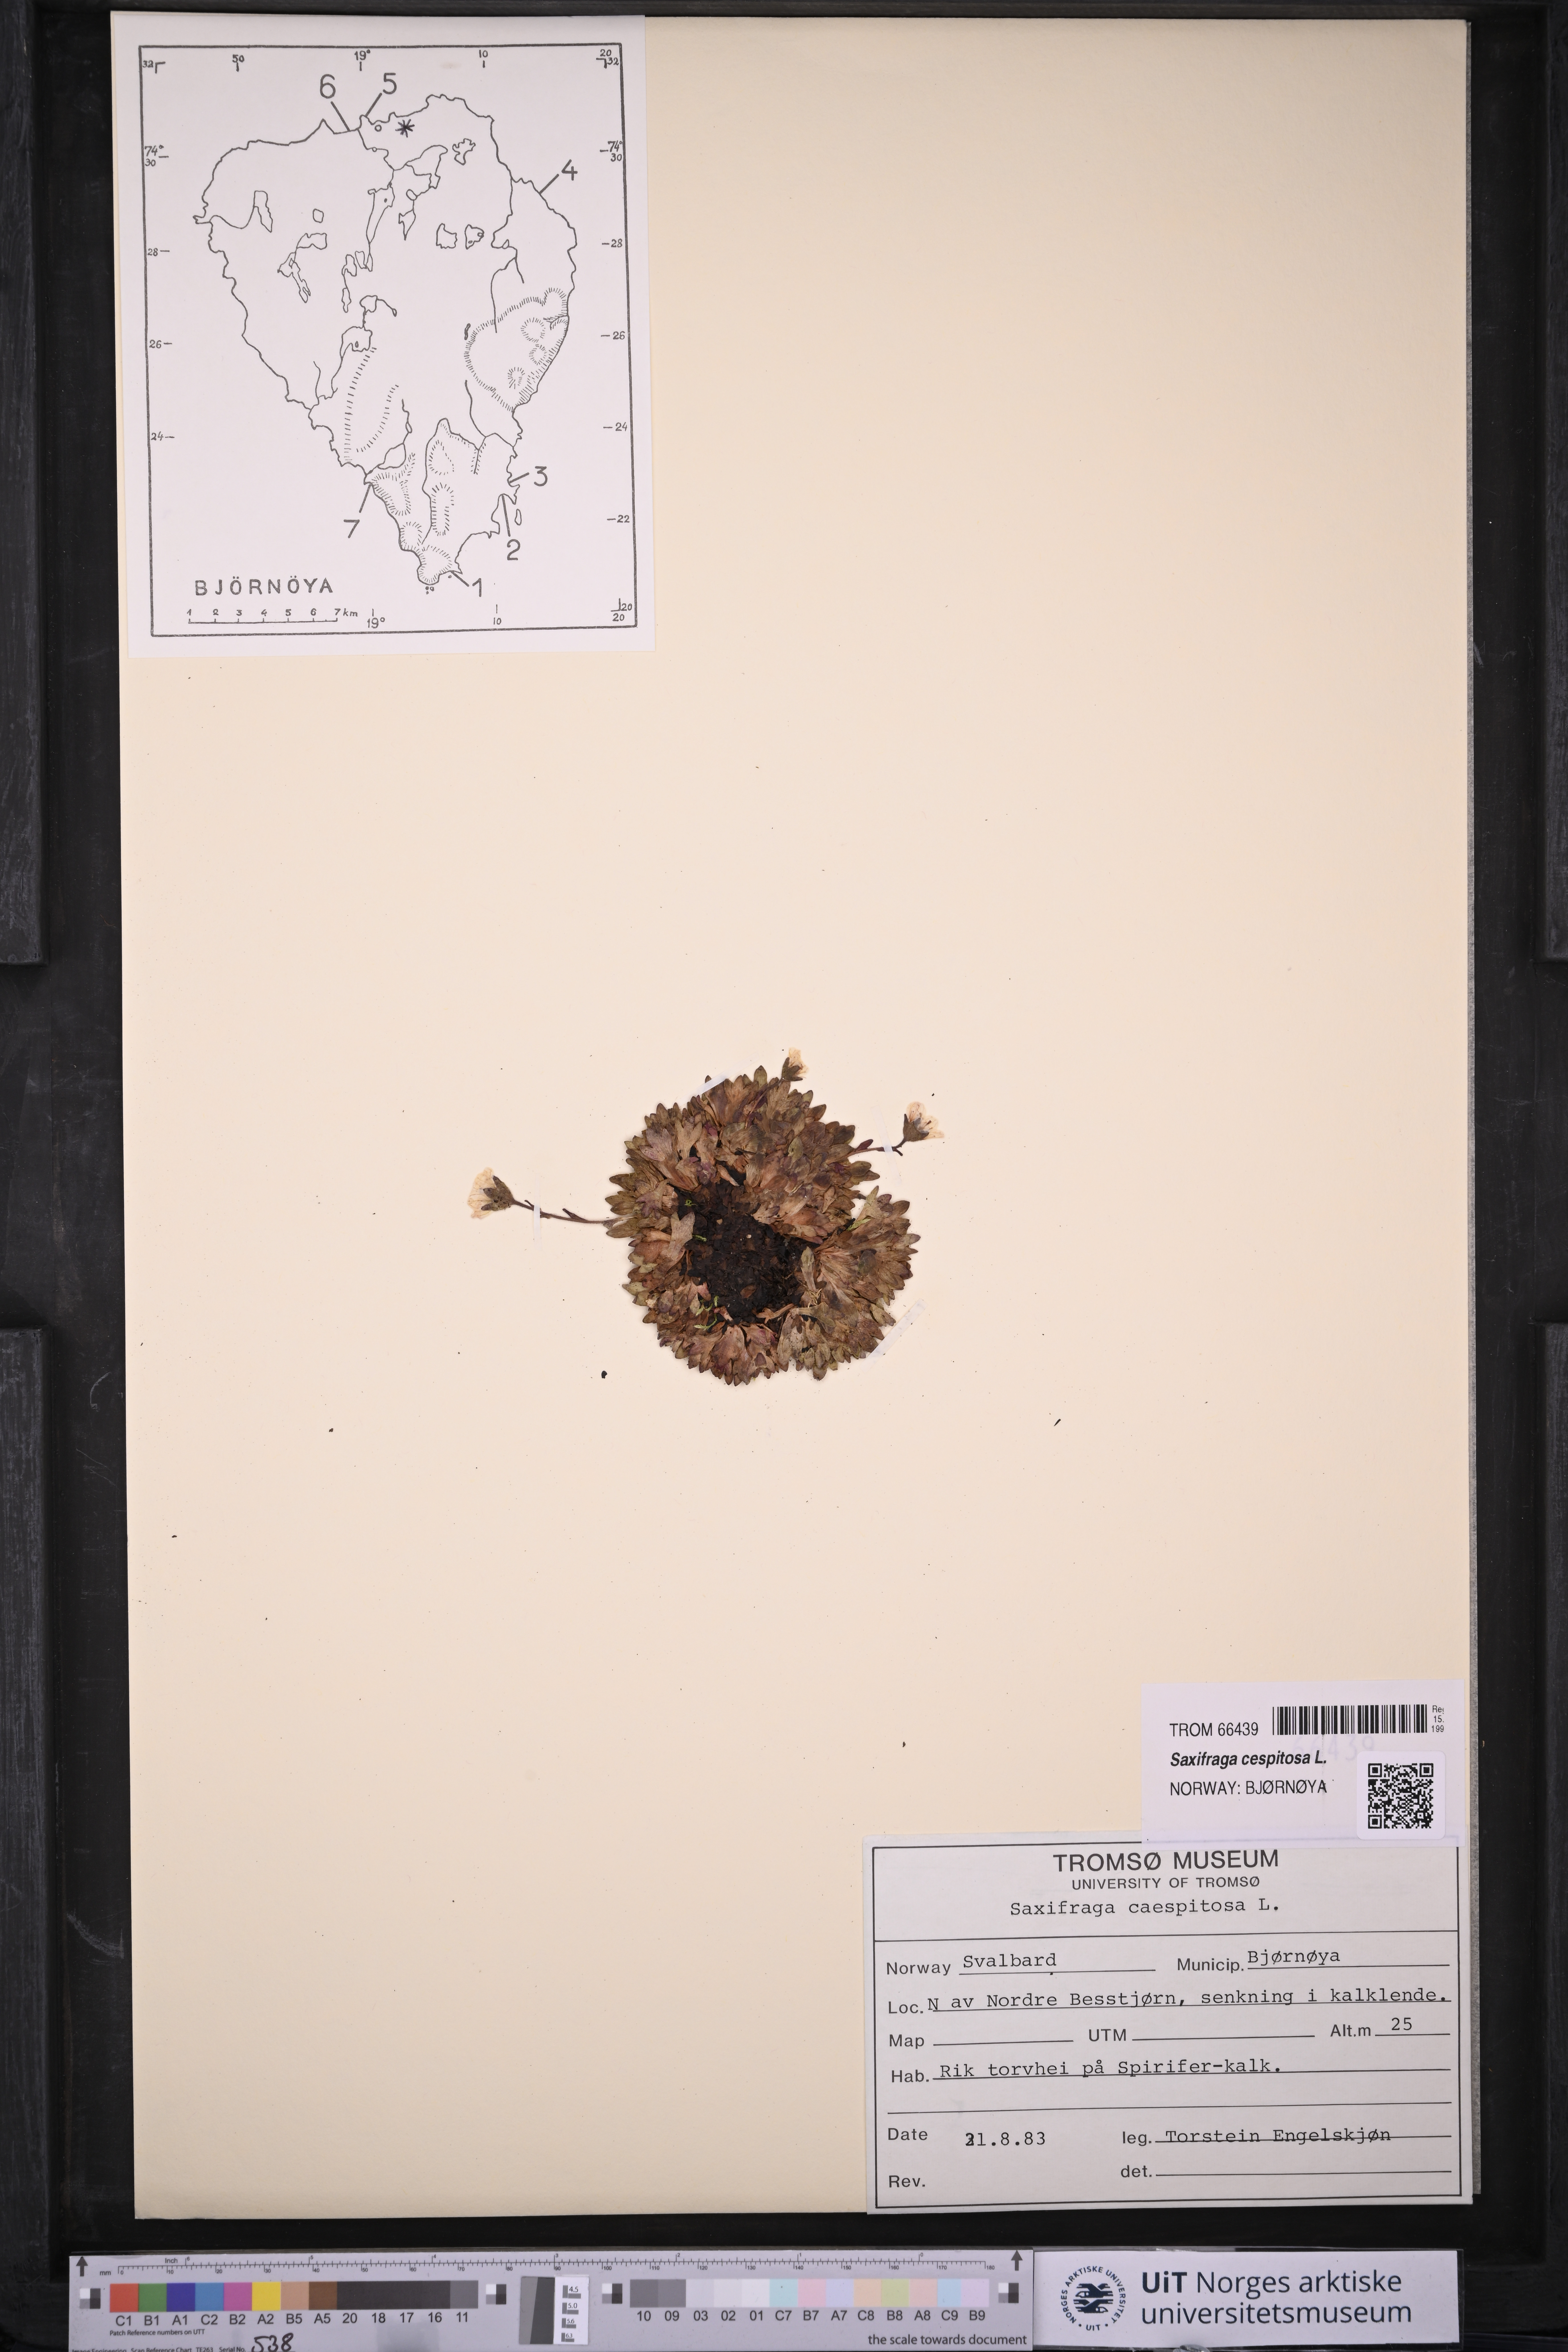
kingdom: Plantae
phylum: Tracheophyta
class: Magnoliopsida
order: Saxifragales
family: Saxifragaceae
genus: Saxifraga
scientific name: Saxifraga cespitosa
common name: Tufted saxifrage
